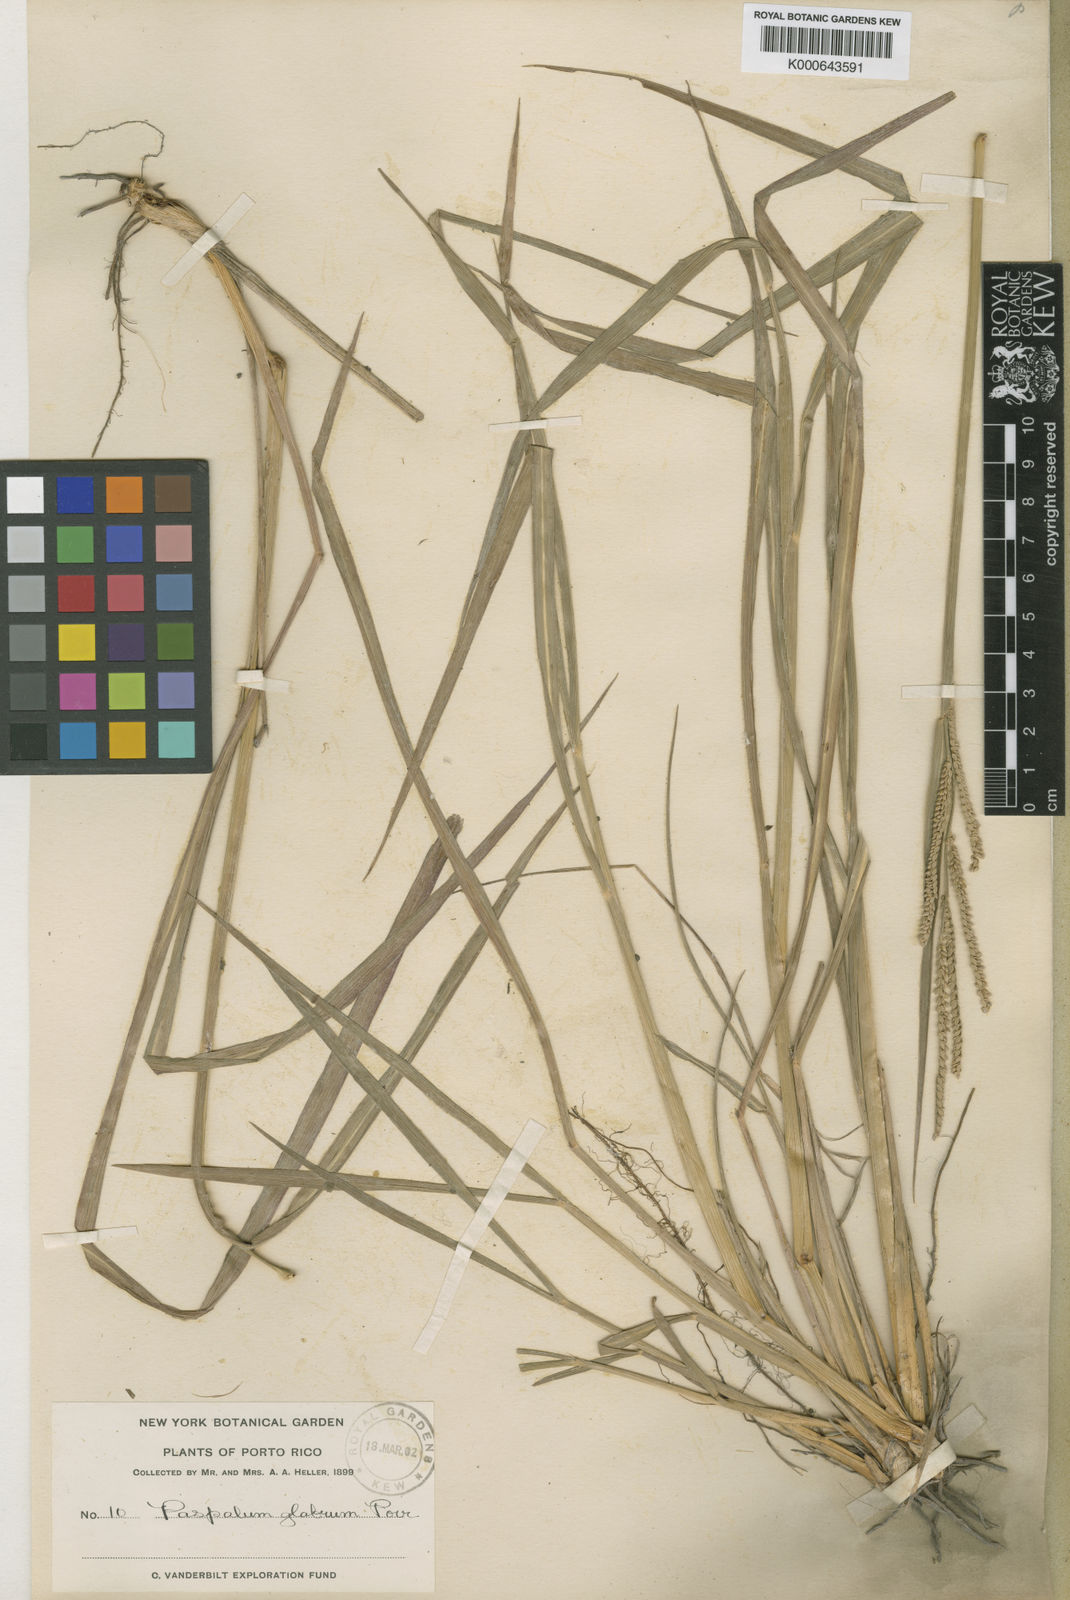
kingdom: Plantae
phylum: Tracheophyta
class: Liliopsida
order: Poales
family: Poaceae
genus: Paspalum
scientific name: Paspalum laxum
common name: Coconut paspalum
